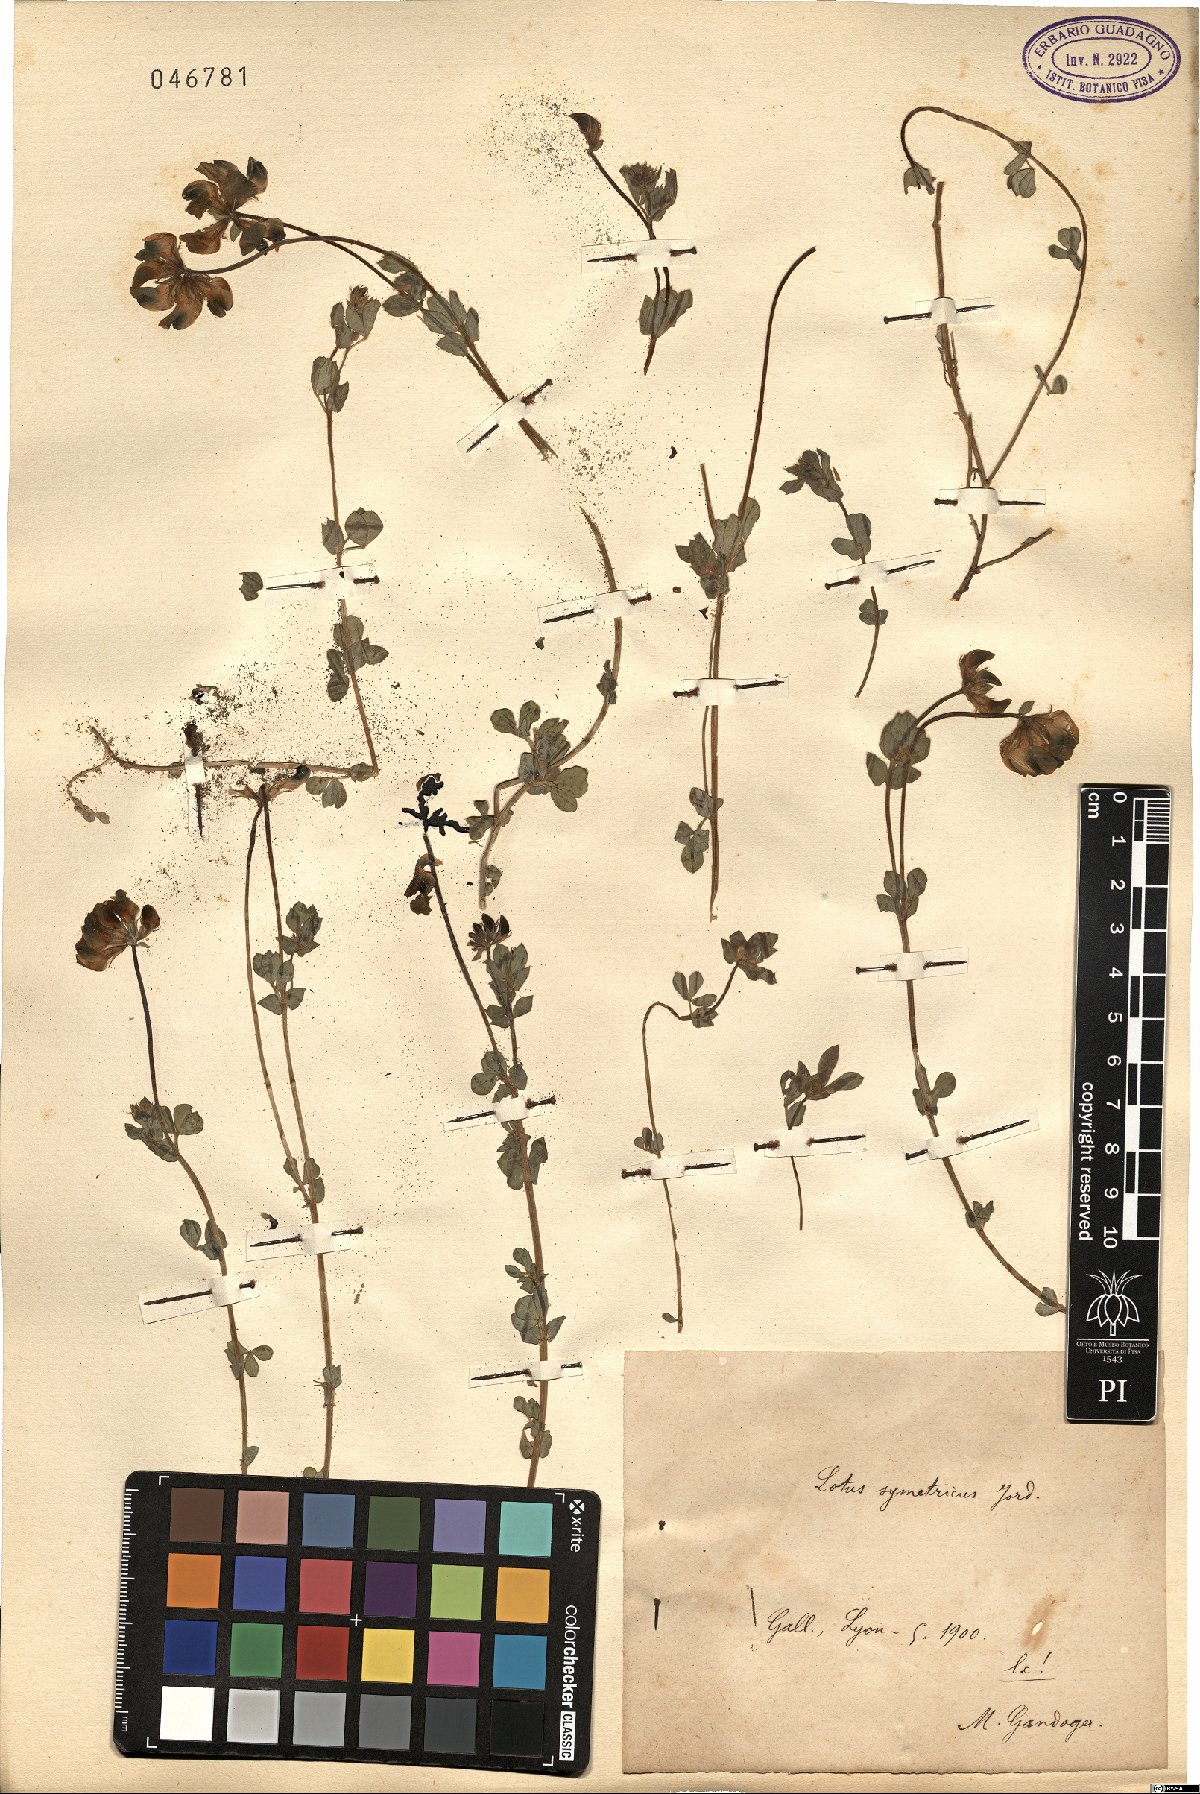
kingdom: Plantae
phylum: Tracheophyta
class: Magnoliopsida
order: Fabales
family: Fabaceae
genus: Lotus
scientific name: Lotus corniculatus
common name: Common bird's-foot-trefoil
